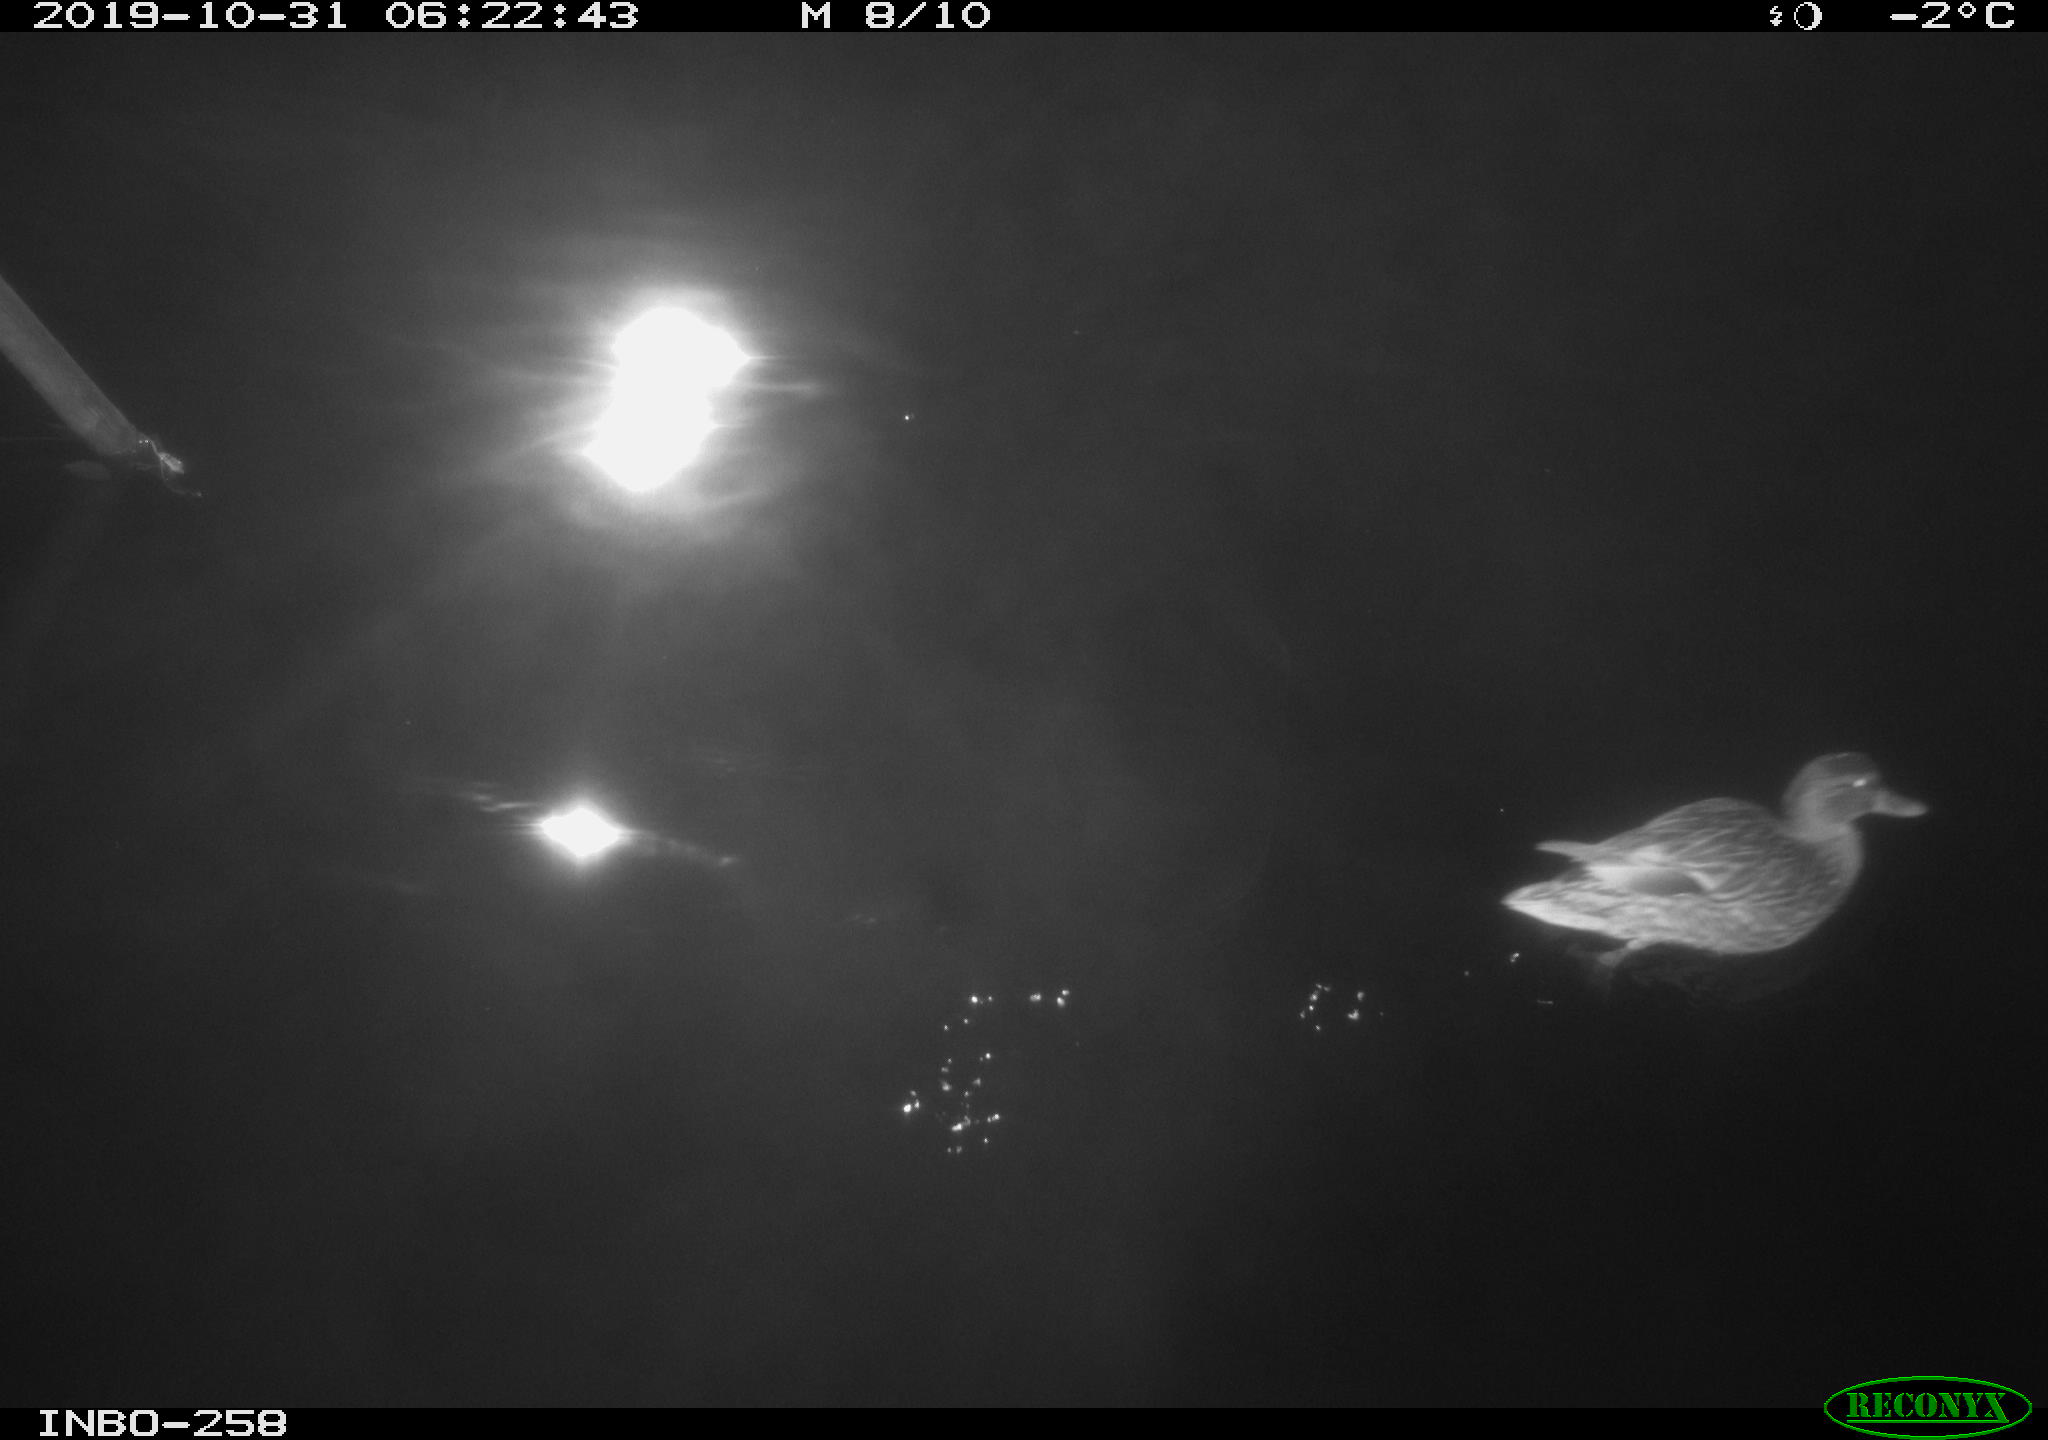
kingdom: Animalia
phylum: Chordata
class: Aves
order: Anseriformes
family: Anatidae
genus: Anas
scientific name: Anas platyrhynchos
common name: Mallard
